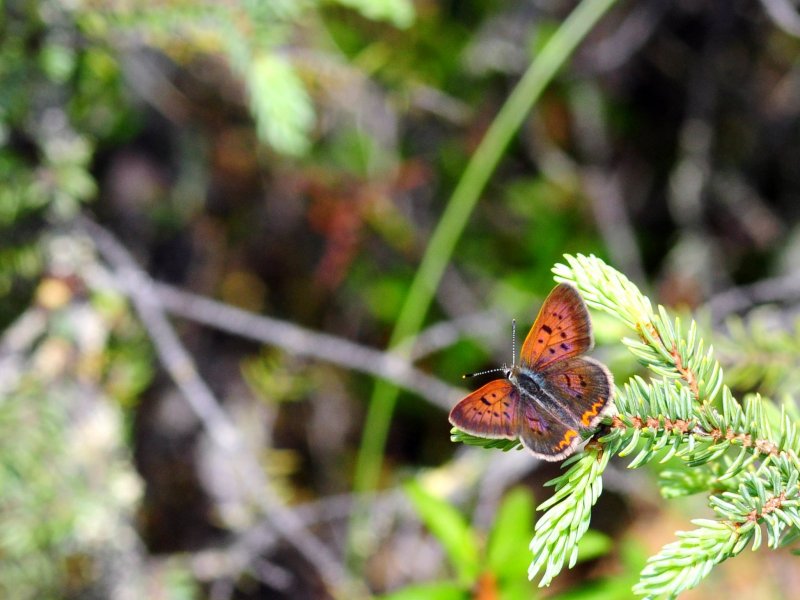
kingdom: Animalia
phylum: Arthropoda
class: Insecta
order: Lepidoptera
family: Lycaenidae
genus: Epidemia
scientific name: Epidemia dorcas
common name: Dorcas Copper
